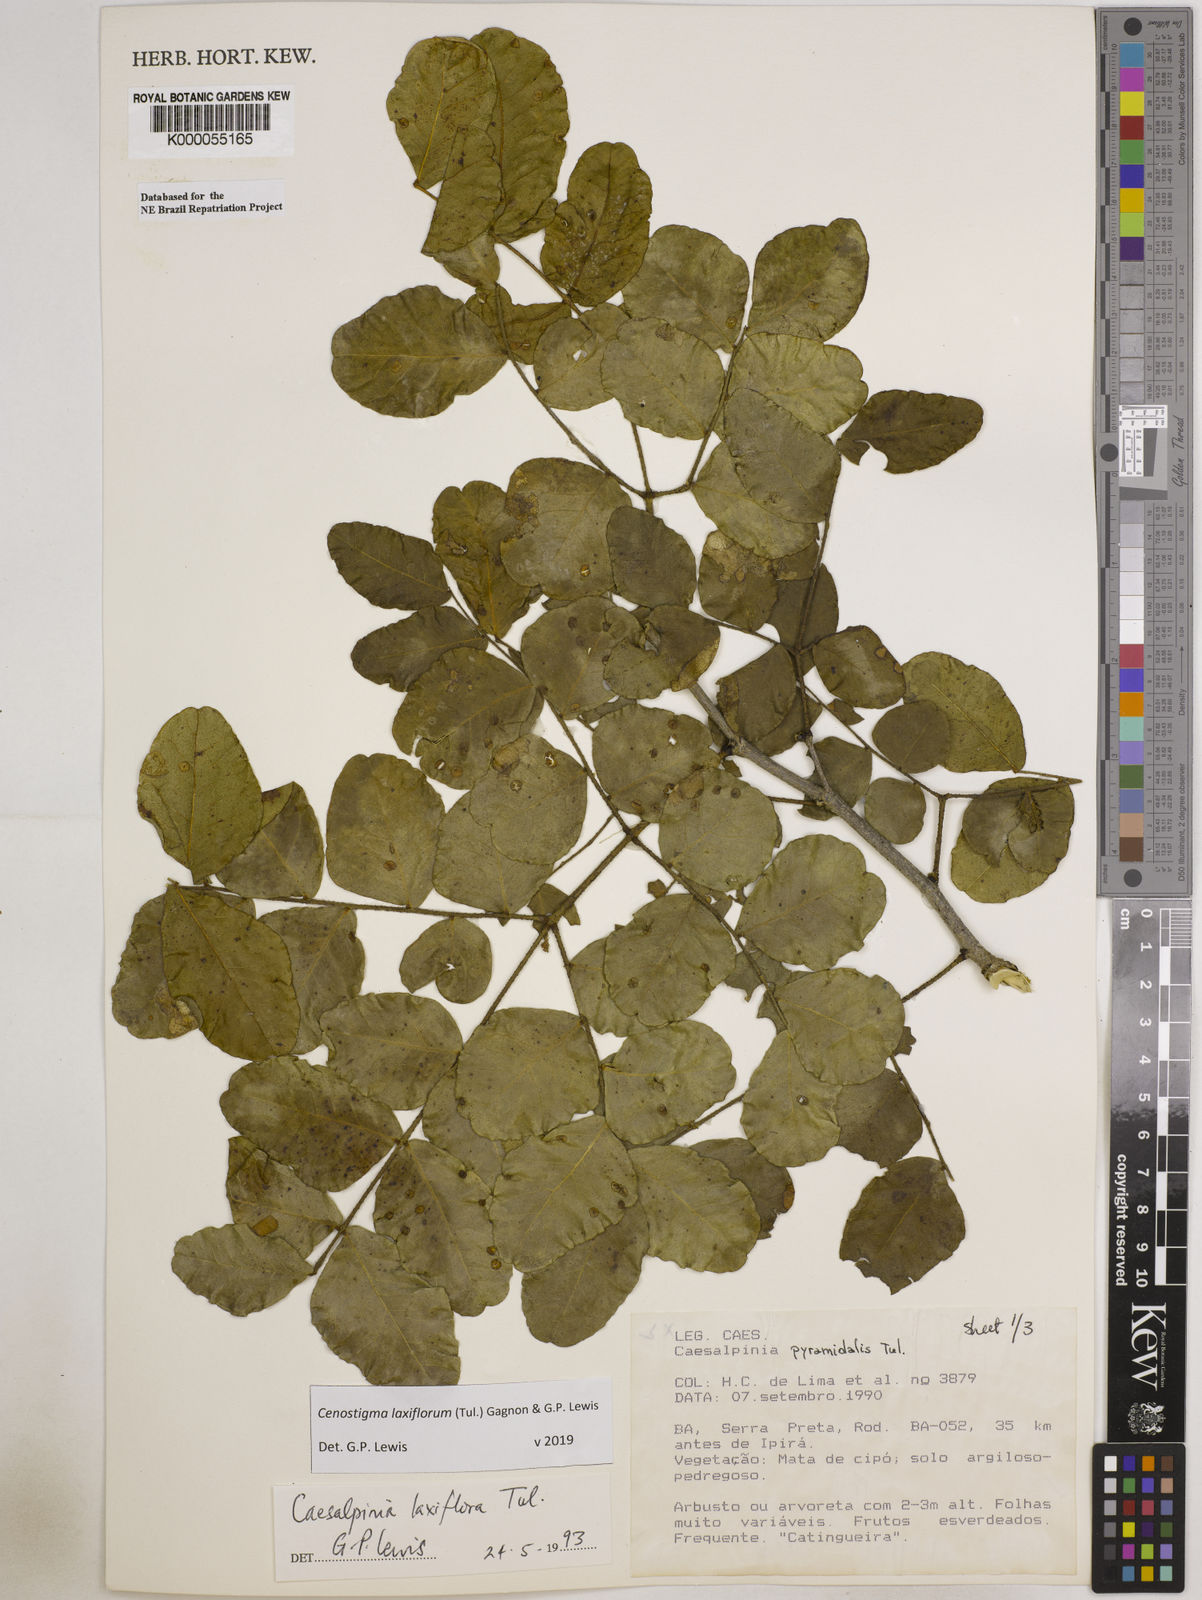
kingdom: Plantae
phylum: Tracheophyta
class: Magnoliopsida
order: Fabales
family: Fabaceae
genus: Cenostigma
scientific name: Cenostigma laxiflorum
